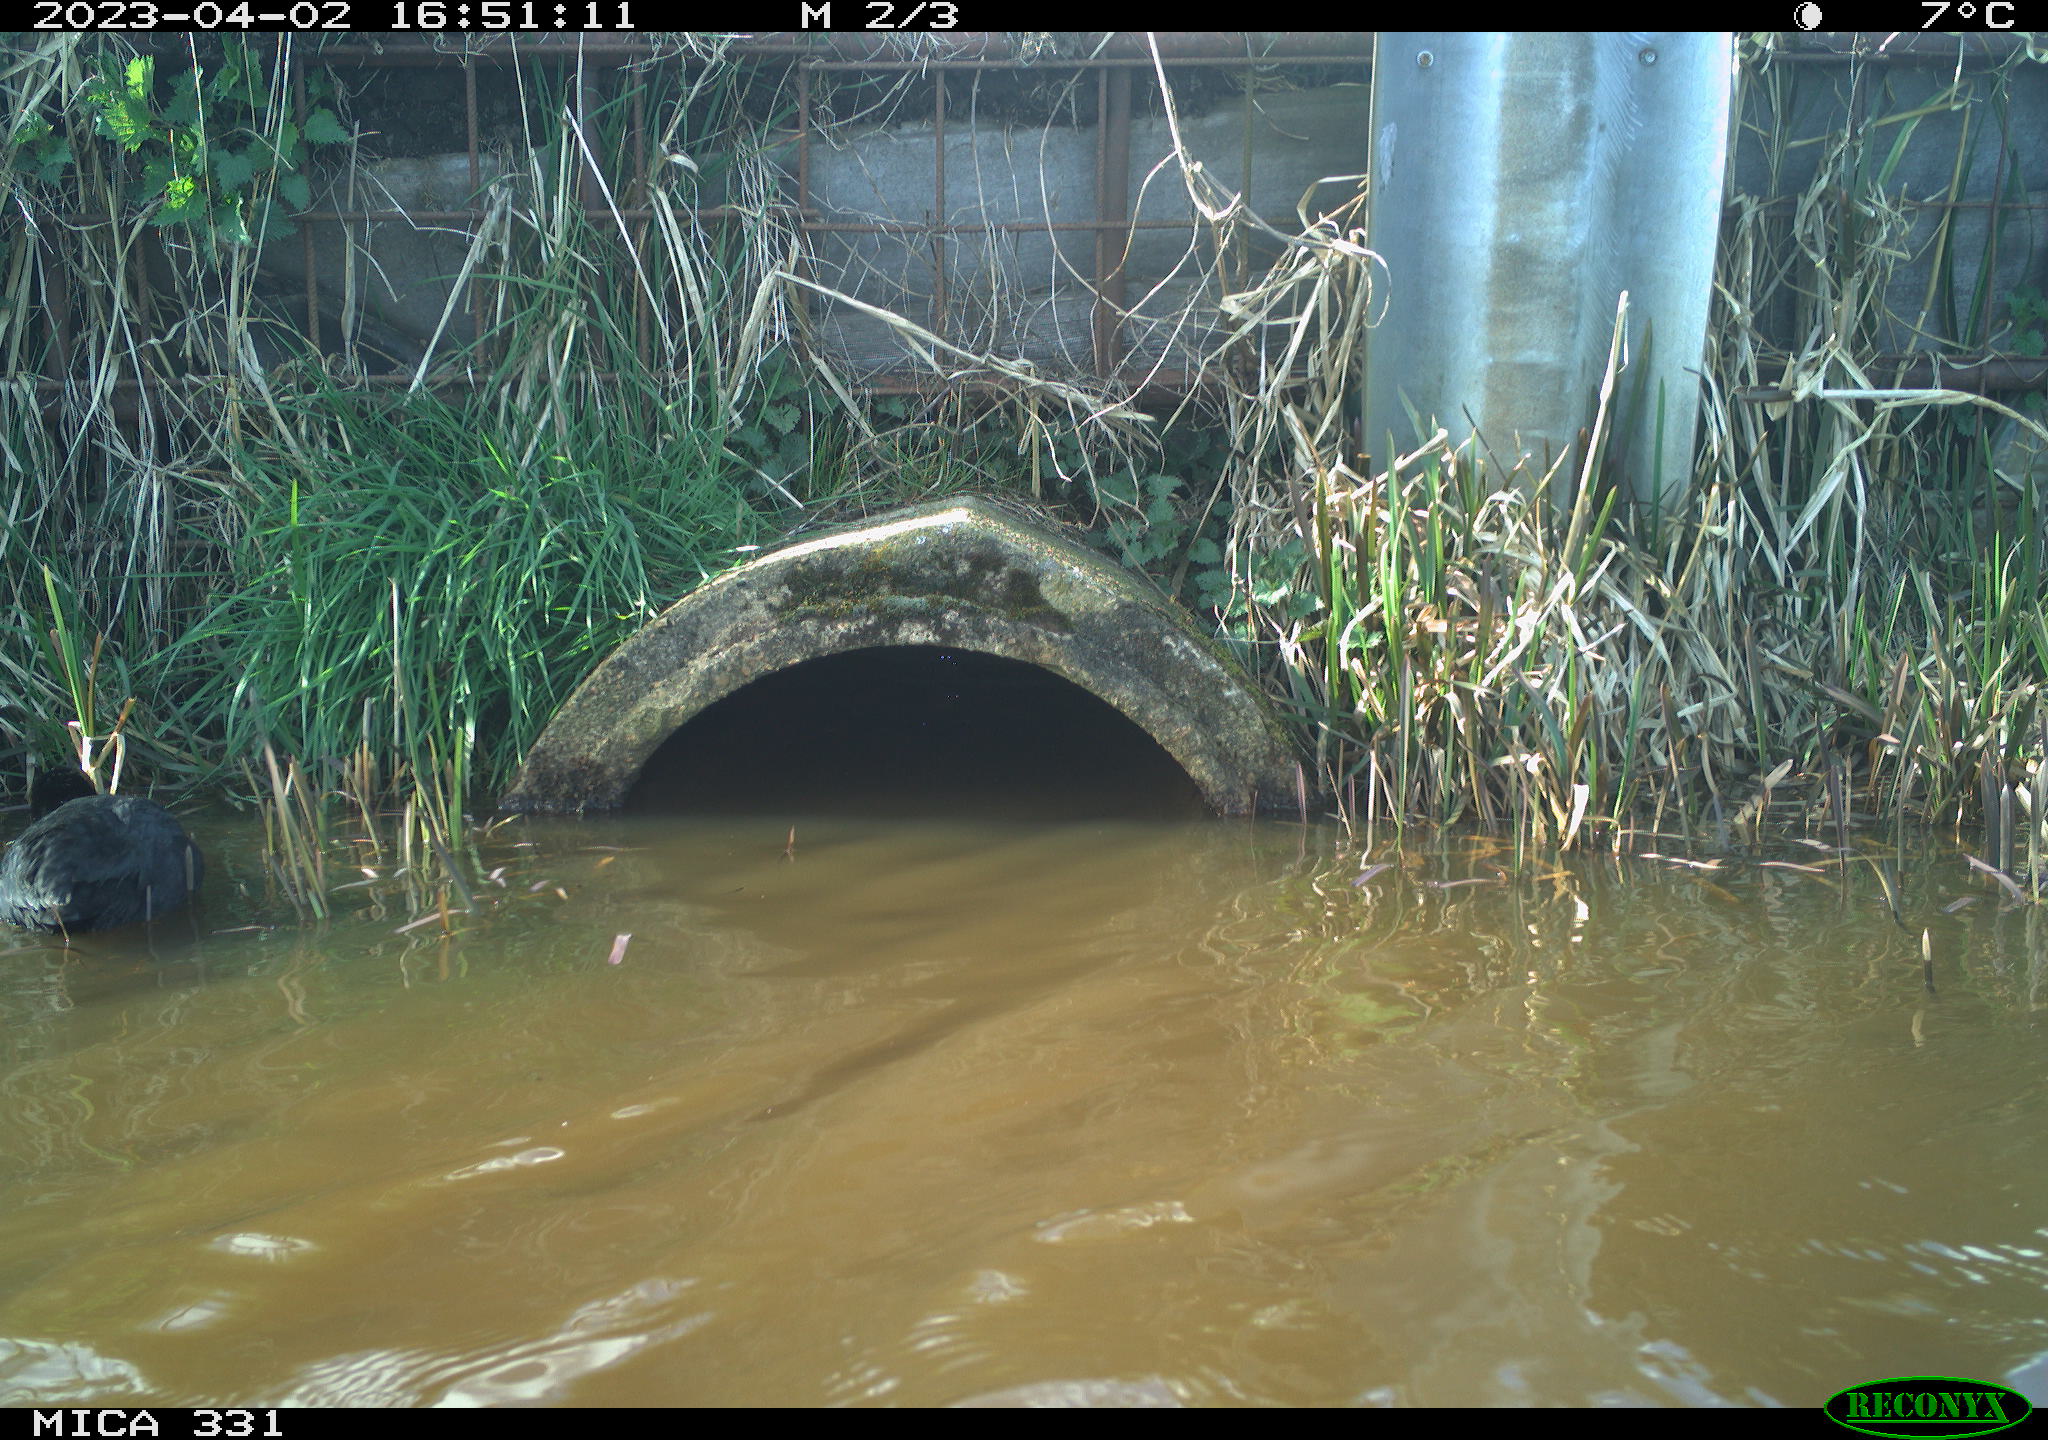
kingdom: Animalia
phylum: Chordata
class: Aves
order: Gruiformes
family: Rallidae
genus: Gallinula
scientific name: Gallinula chloropus
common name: Common moorhen
